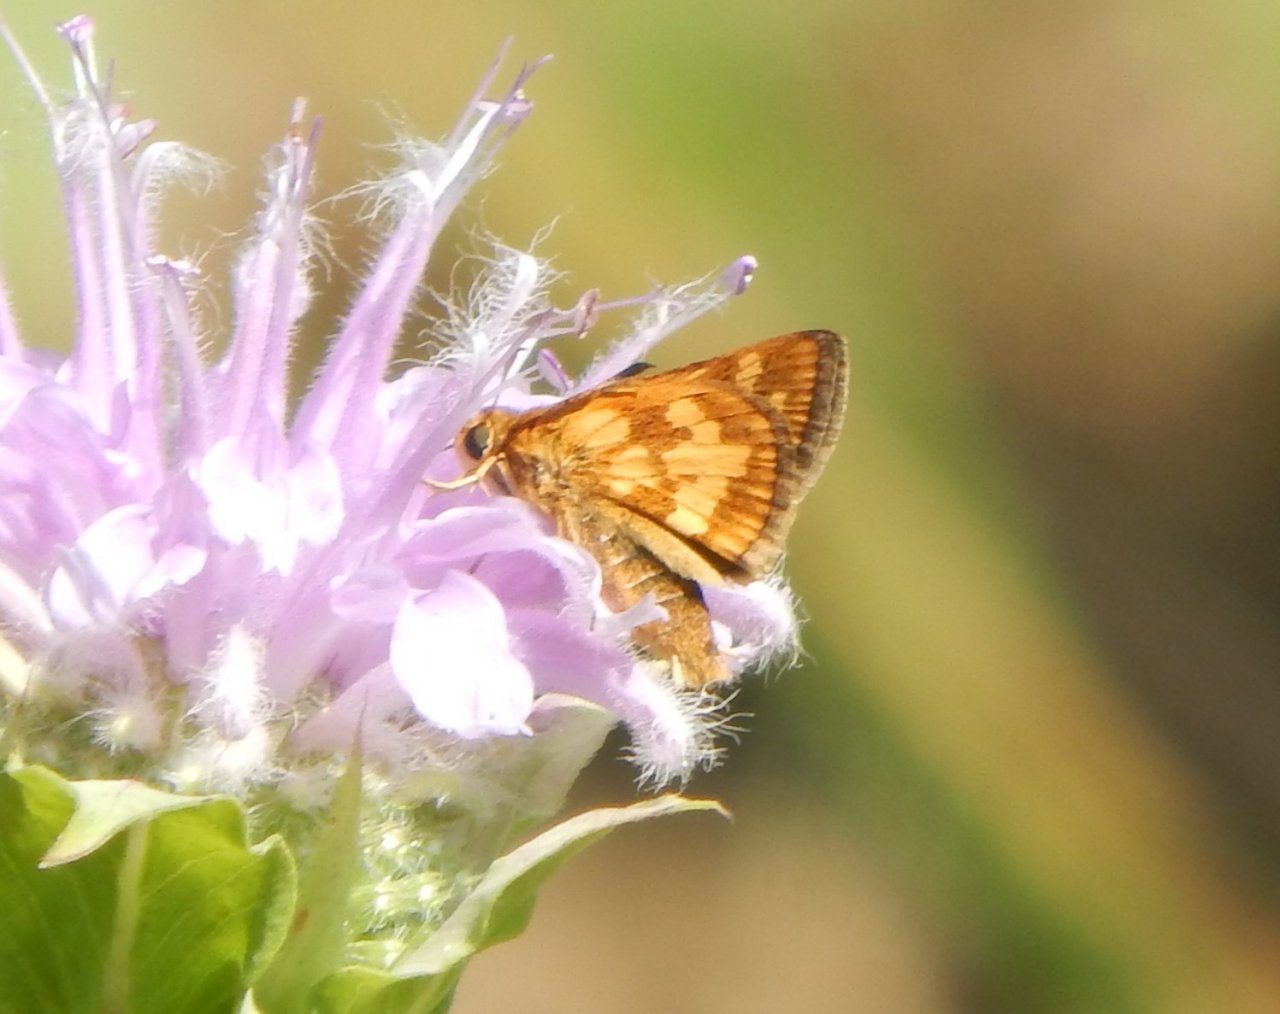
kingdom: Animalia
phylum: Arthropoda
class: Insecta
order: Lepidoptera
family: Hesperiidae
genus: Polites
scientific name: Polites coras
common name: Peck's Skipper
